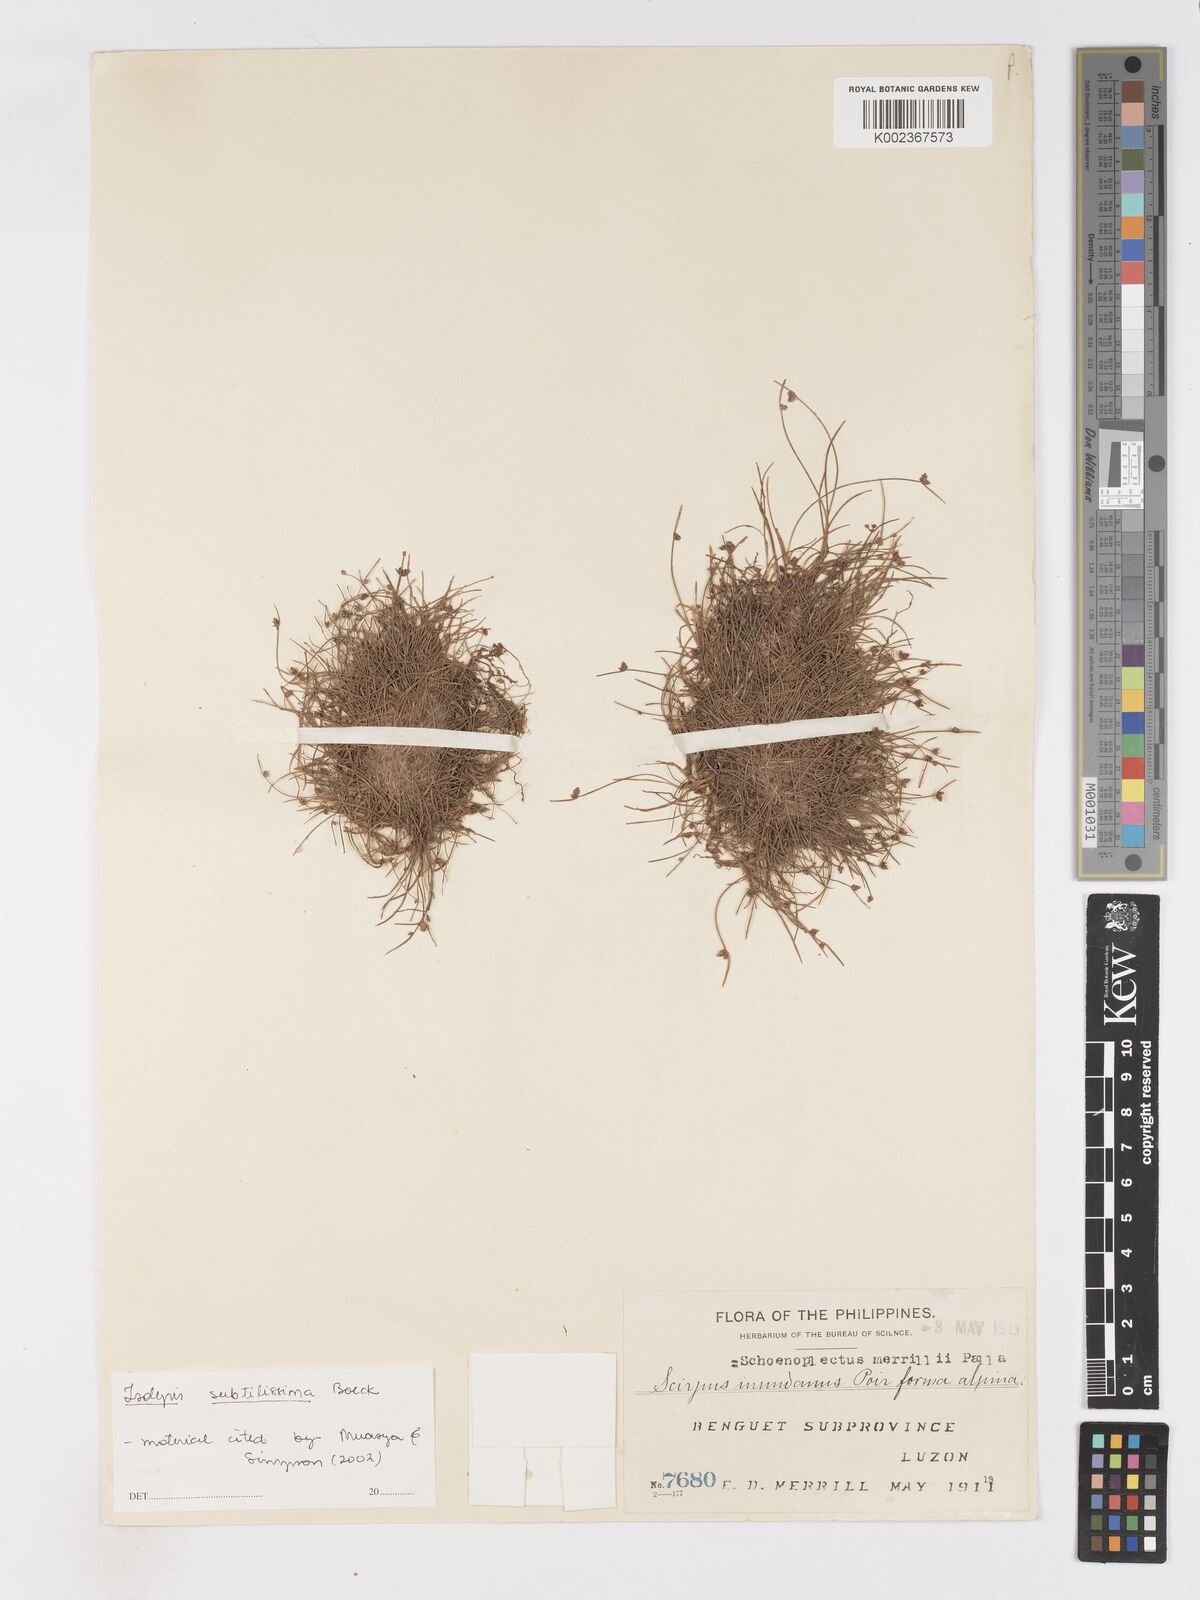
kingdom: Plantae
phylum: Tracheophyta
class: Liliopsida
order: Poales
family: Cyperaceae
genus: Isolepis
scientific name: Isolepis subtilissima
